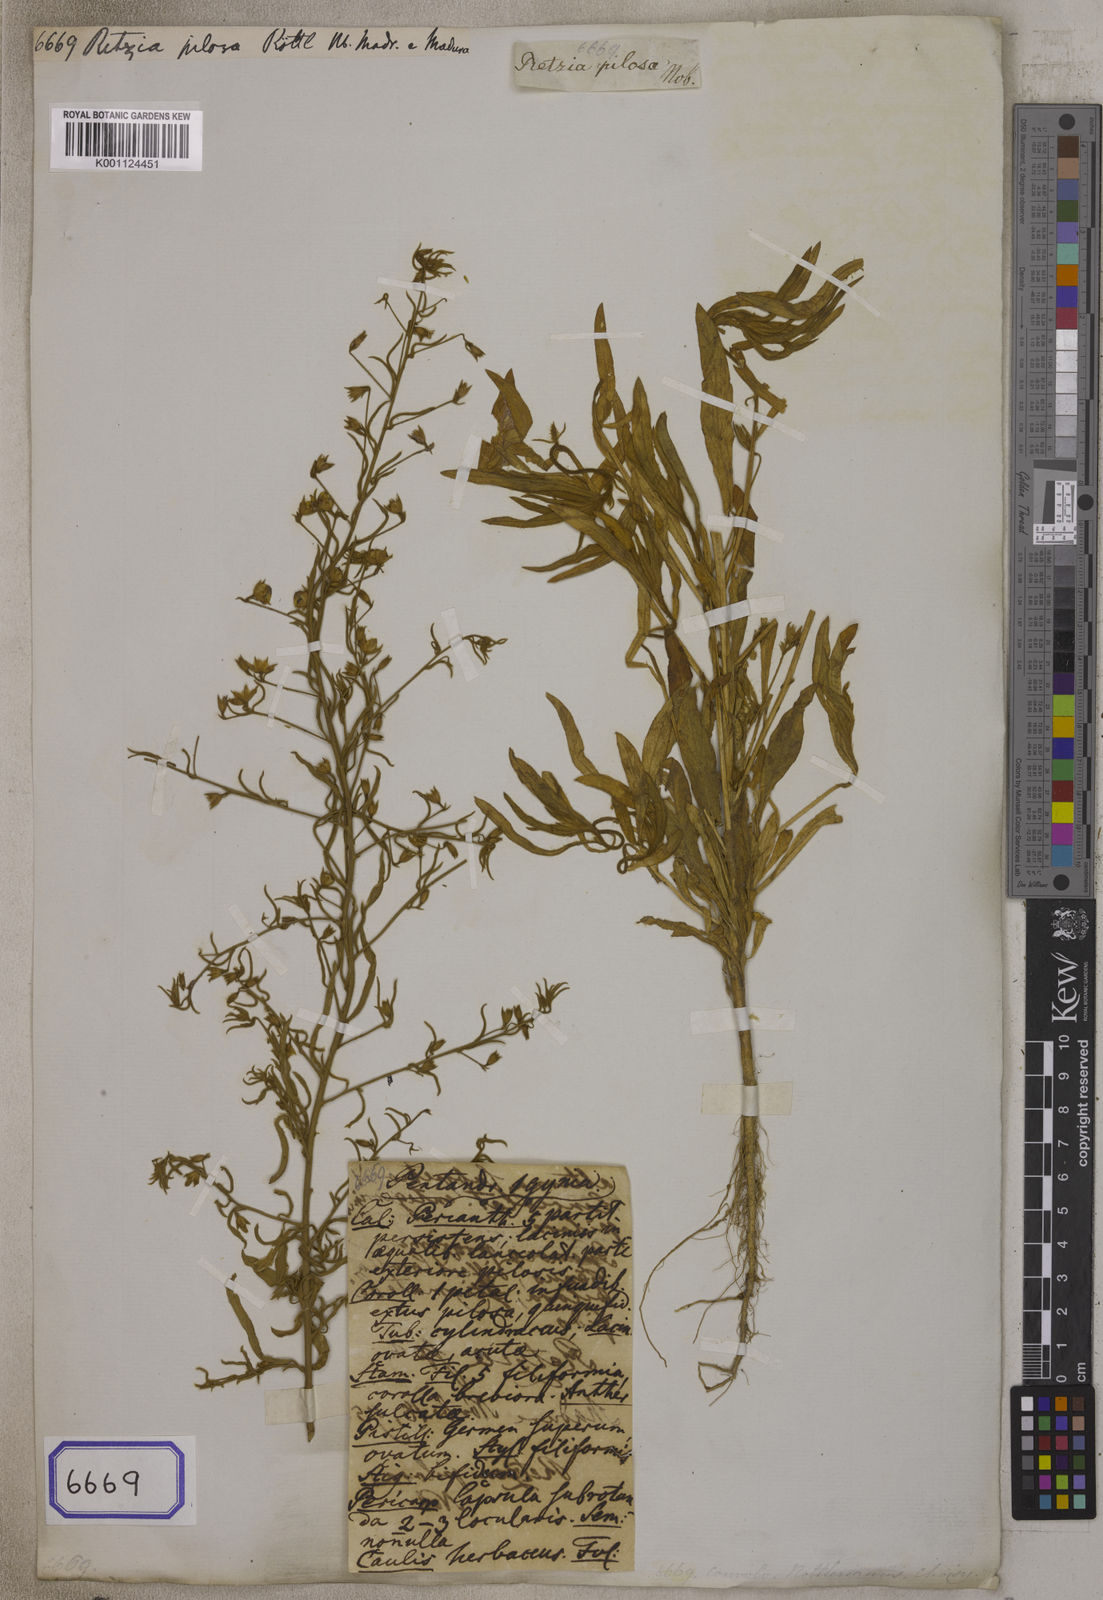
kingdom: Plantae
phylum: Tracheophyta
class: Magnoliopsida
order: Solanales
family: Convolvulaceae
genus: Convolvulus
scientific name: Convolvulus rottlerianus
